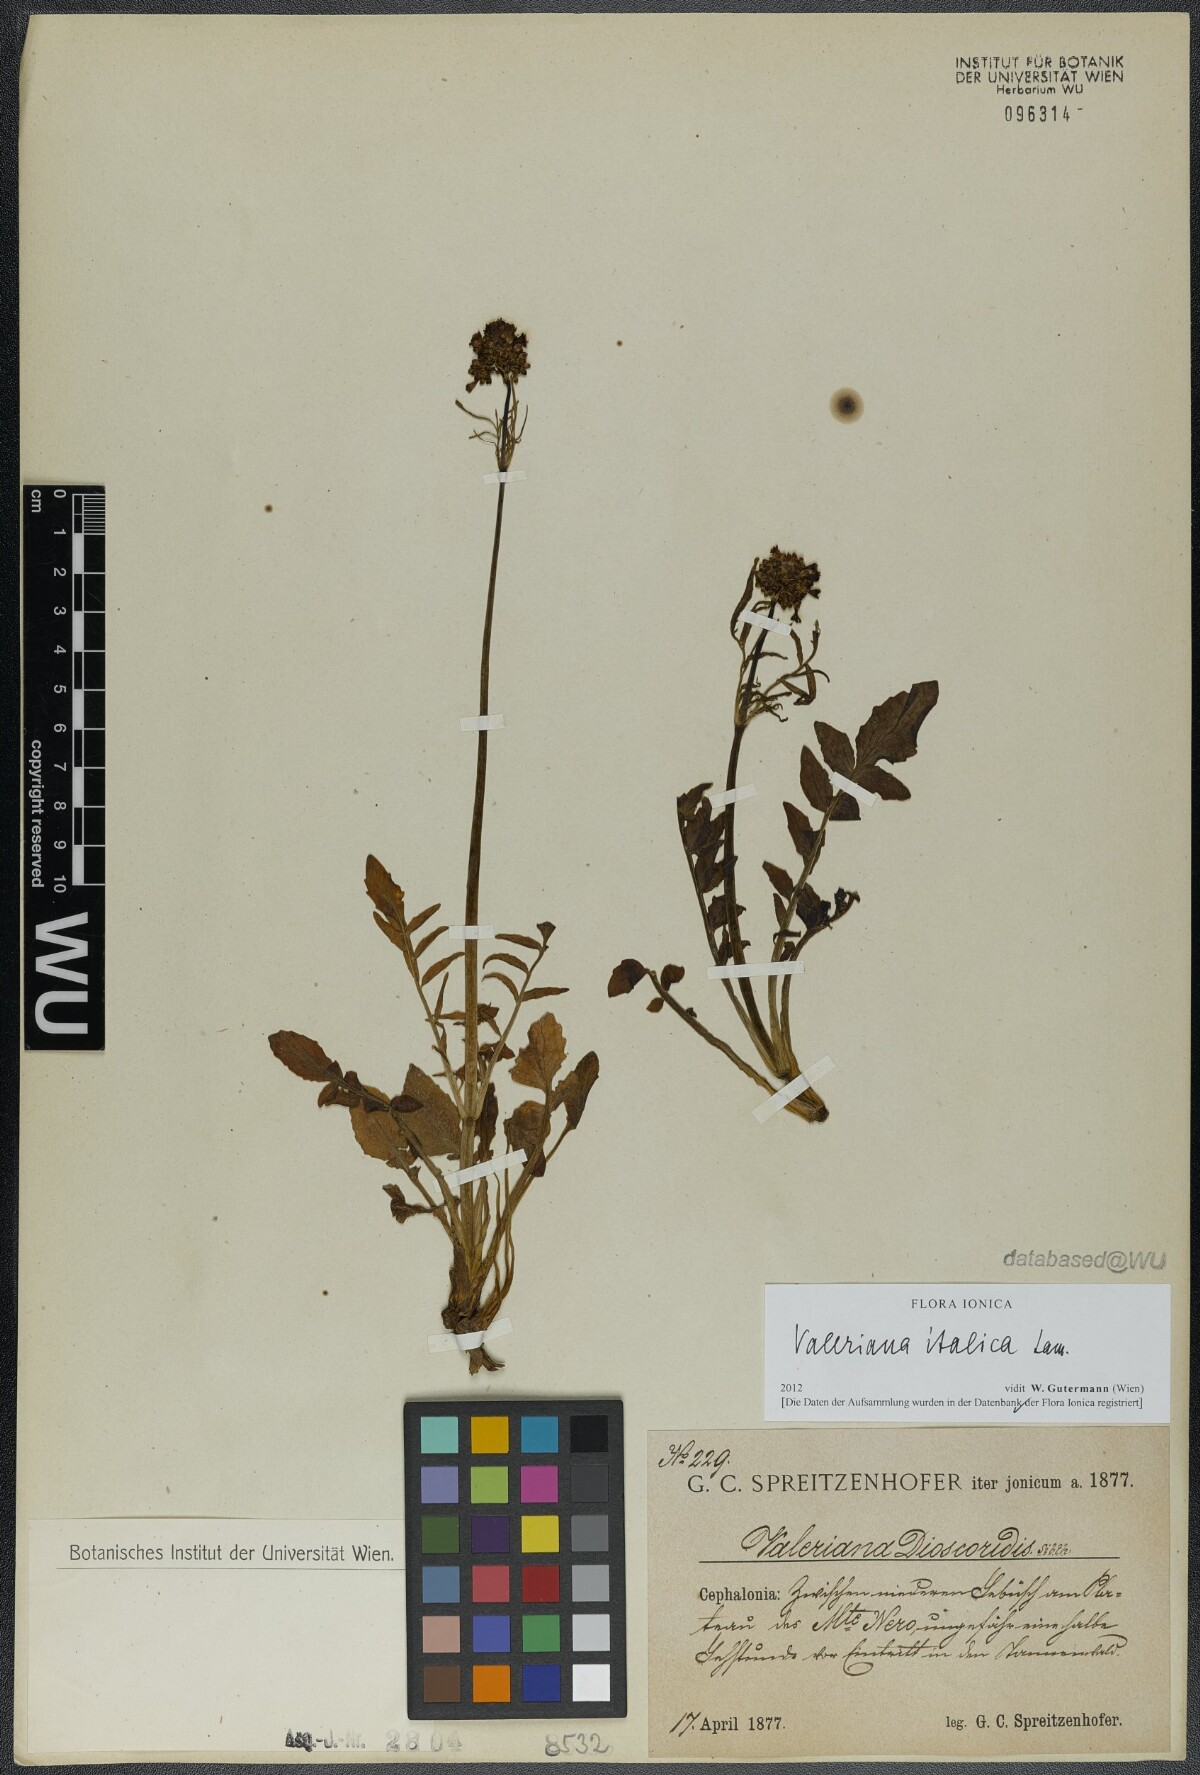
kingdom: Plantae
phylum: Tracheophyta
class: Magnoliopsida
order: Dipsacales
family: Caprifoliaceae
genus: Valeriana
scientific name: Valeriana dioscoridis
